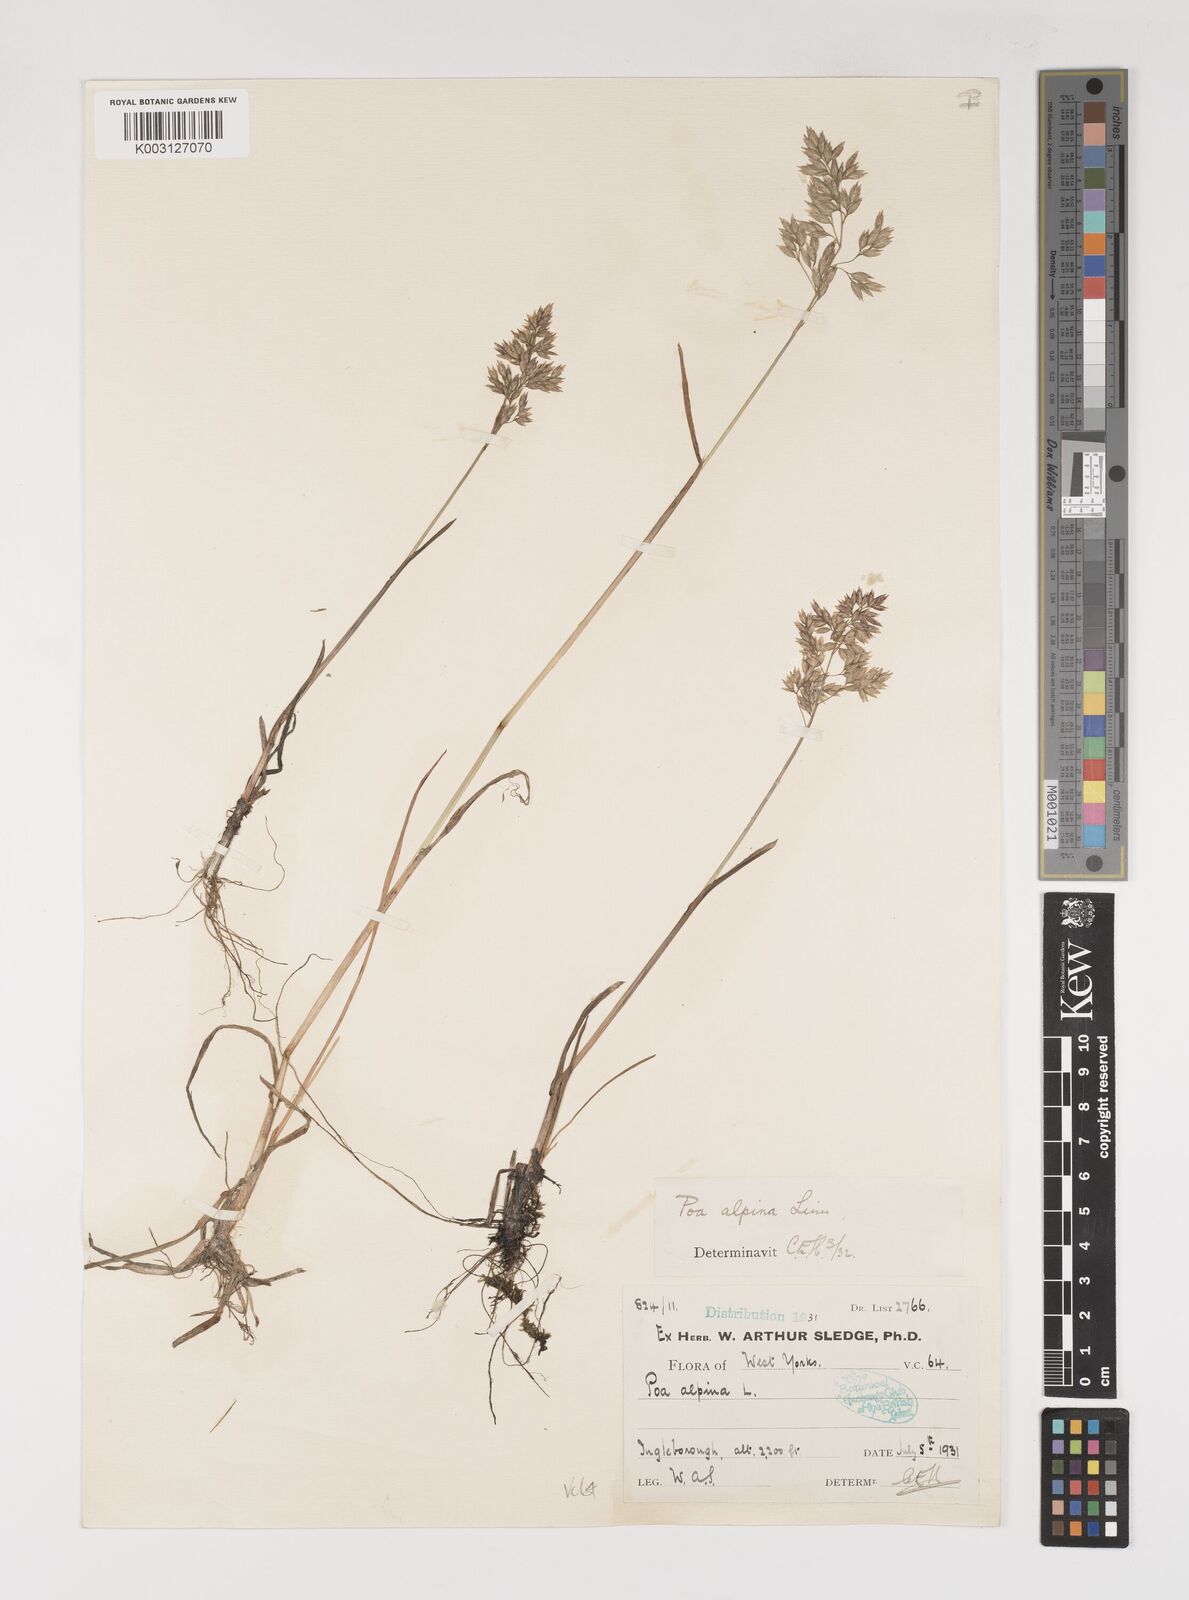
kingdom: Plantae
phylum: Tracheophyta
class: Liliopsida
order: Poales
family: Poaceae
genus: Poa
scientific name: Poa alpina
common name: Alpine bluegrass
